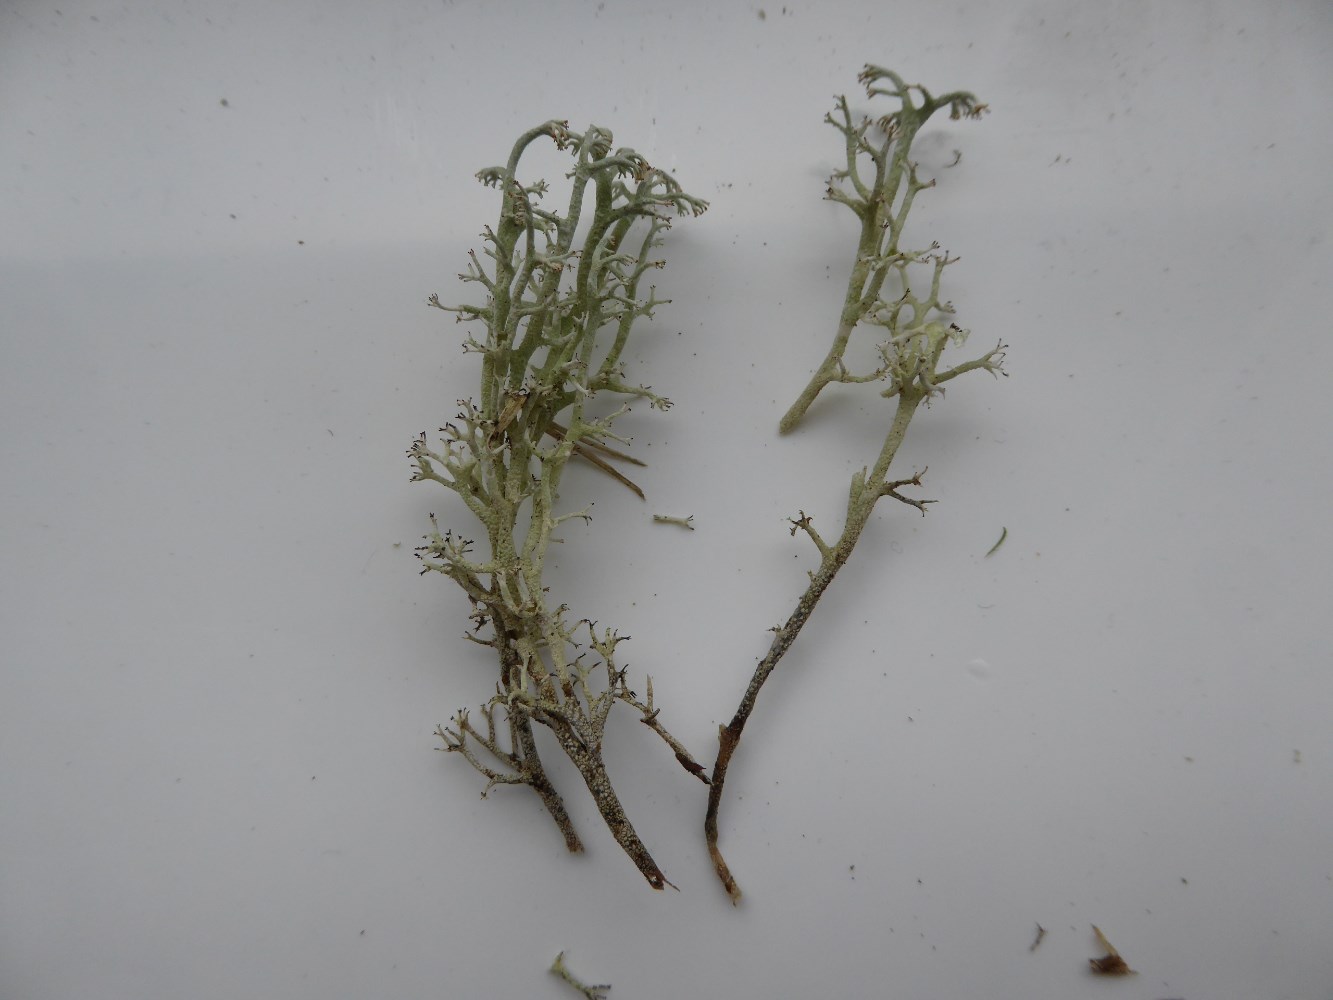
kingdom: Fungi
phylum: Ascomycota
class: Lecanoromycetes
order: Lecanorales
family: Cladoniaceae
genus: Cladonia
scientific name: Cladonia stygia
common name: styg rensdyrlav
